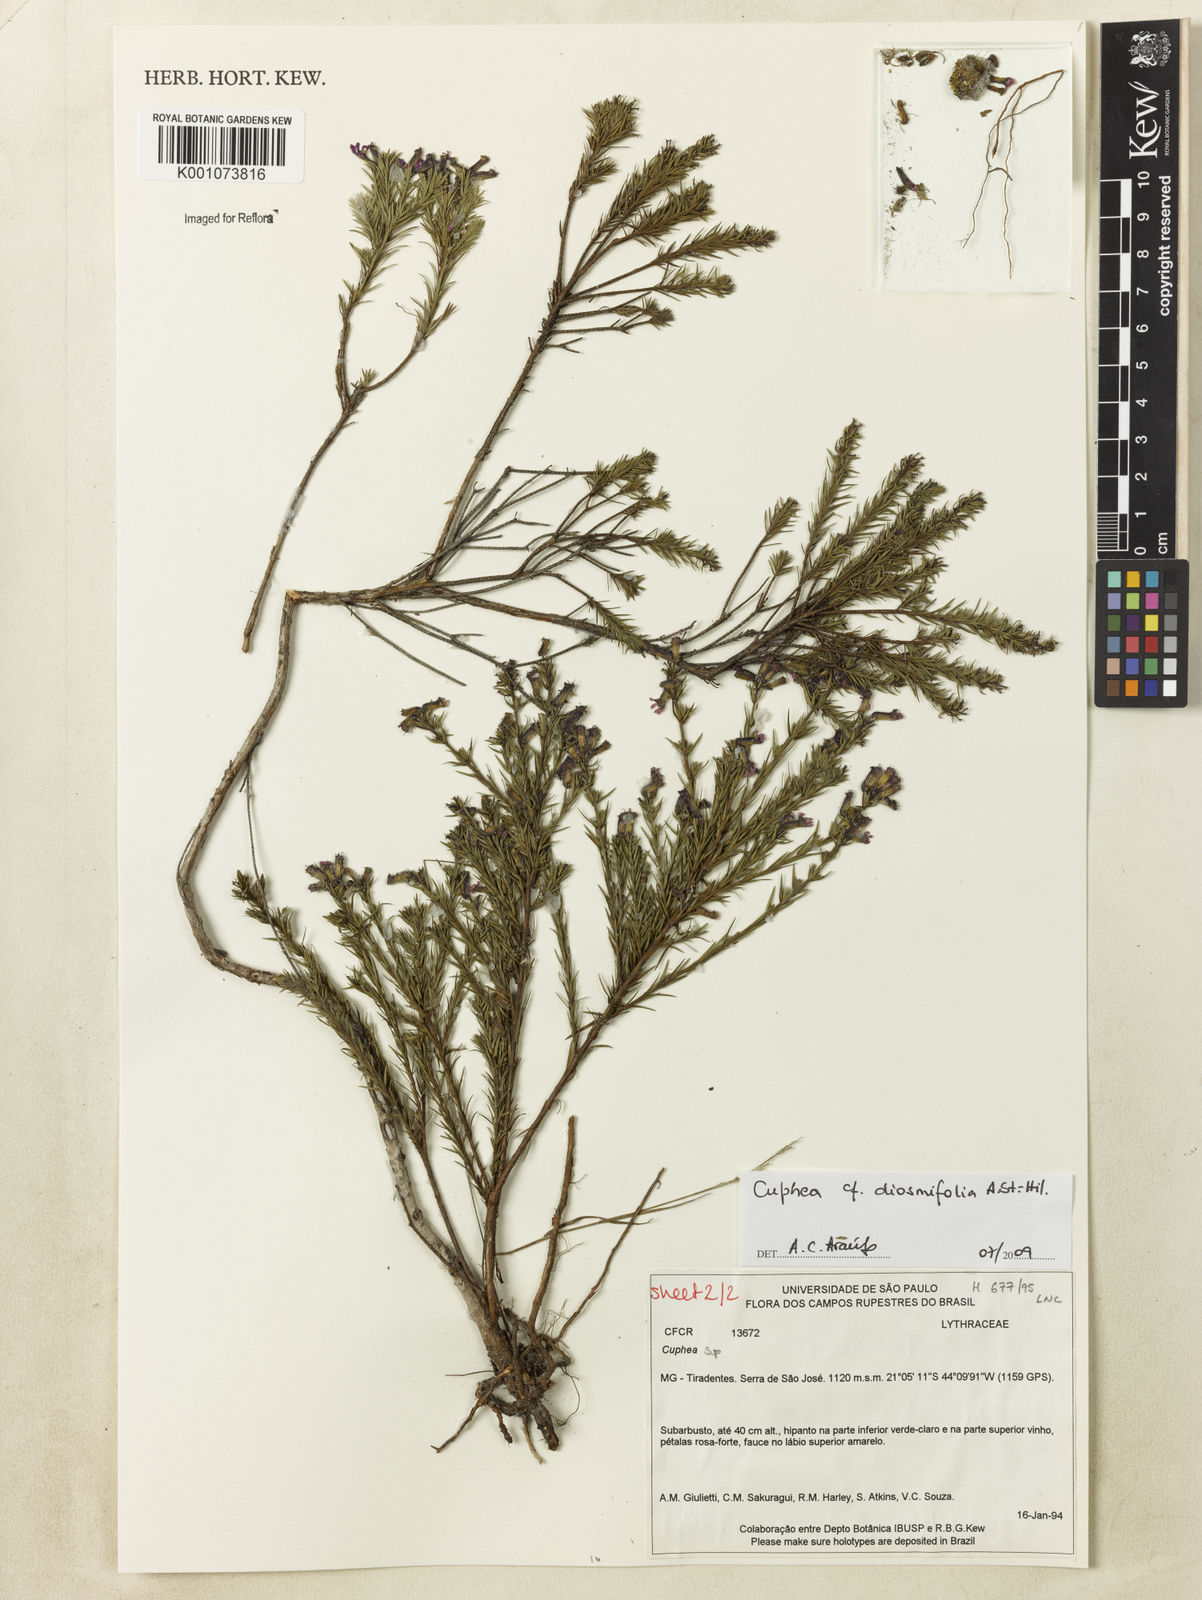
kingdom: Plantae
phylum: Tracheophyta
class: Magnoliopsida
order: Myrtales
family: Lythraceae
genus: Cuphea
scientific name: Cuphea diosmifolia
